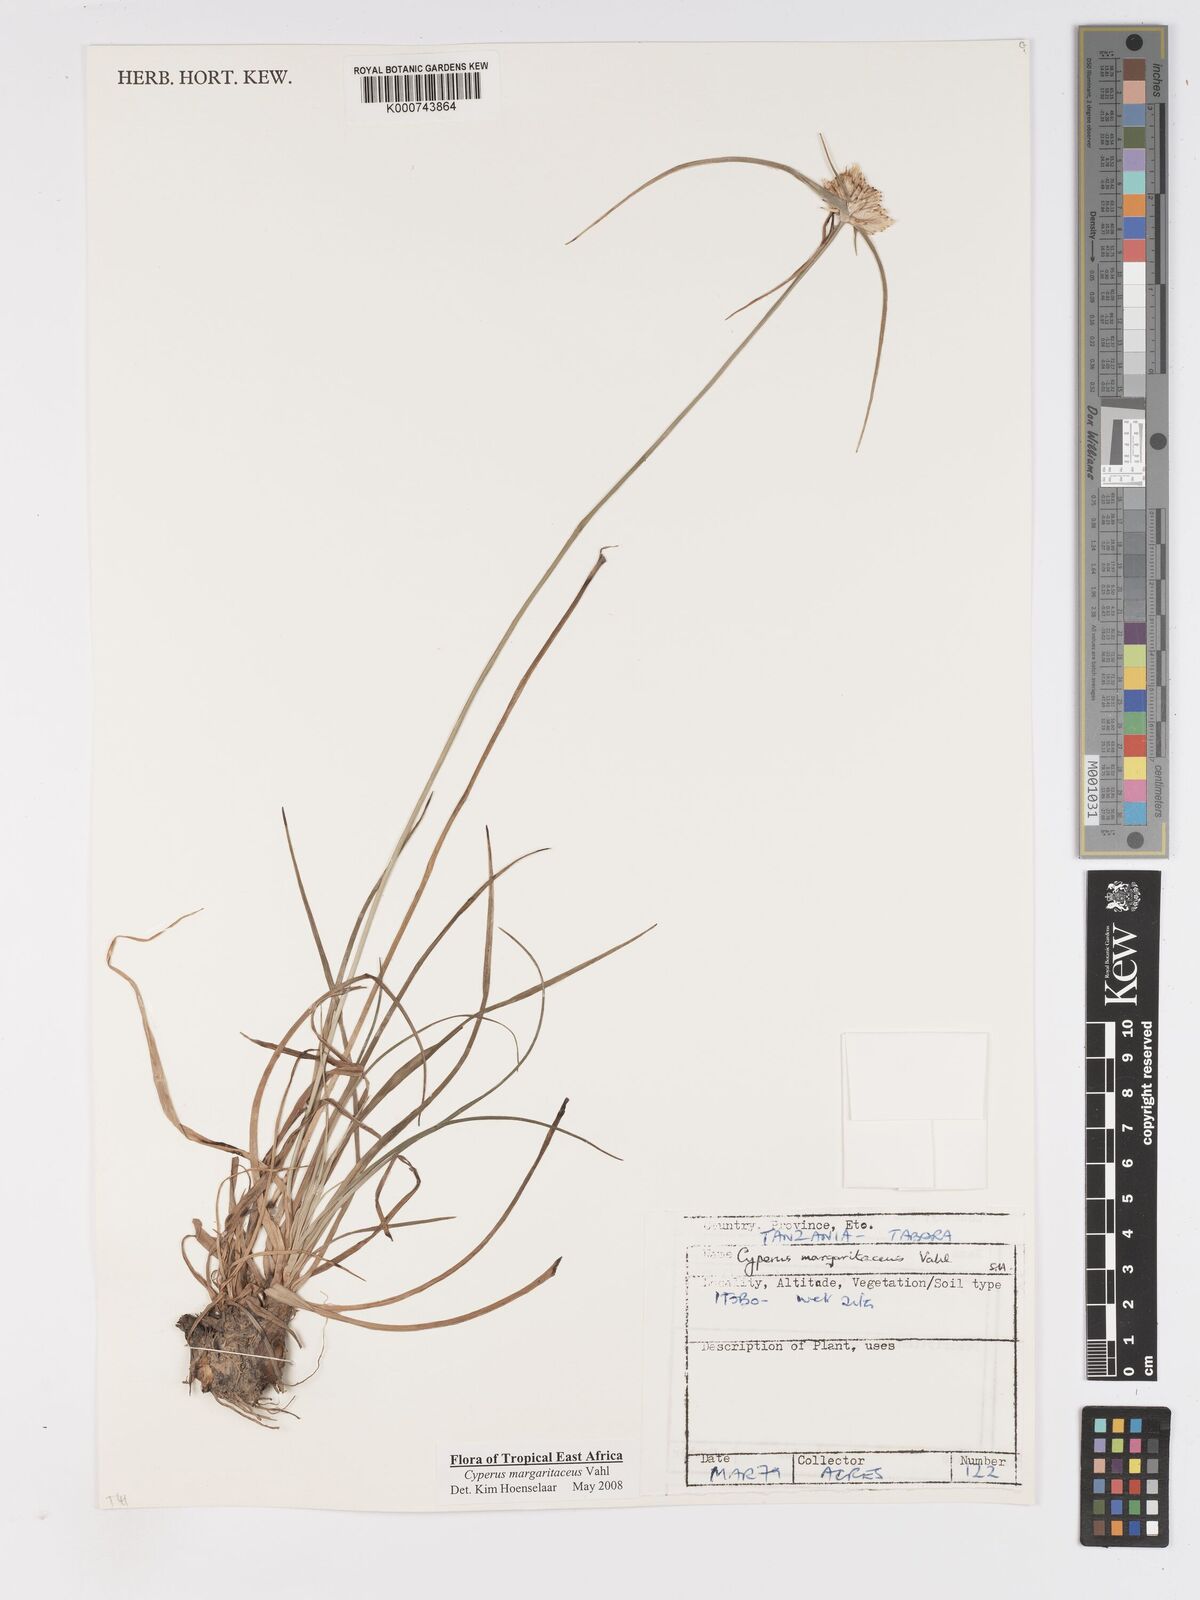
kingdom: Plantae
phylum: Tracheophyta
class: Liliopsida
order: Poales
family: Cyperaceae
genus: Cyperus
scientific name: Cyperus margaritaceus
